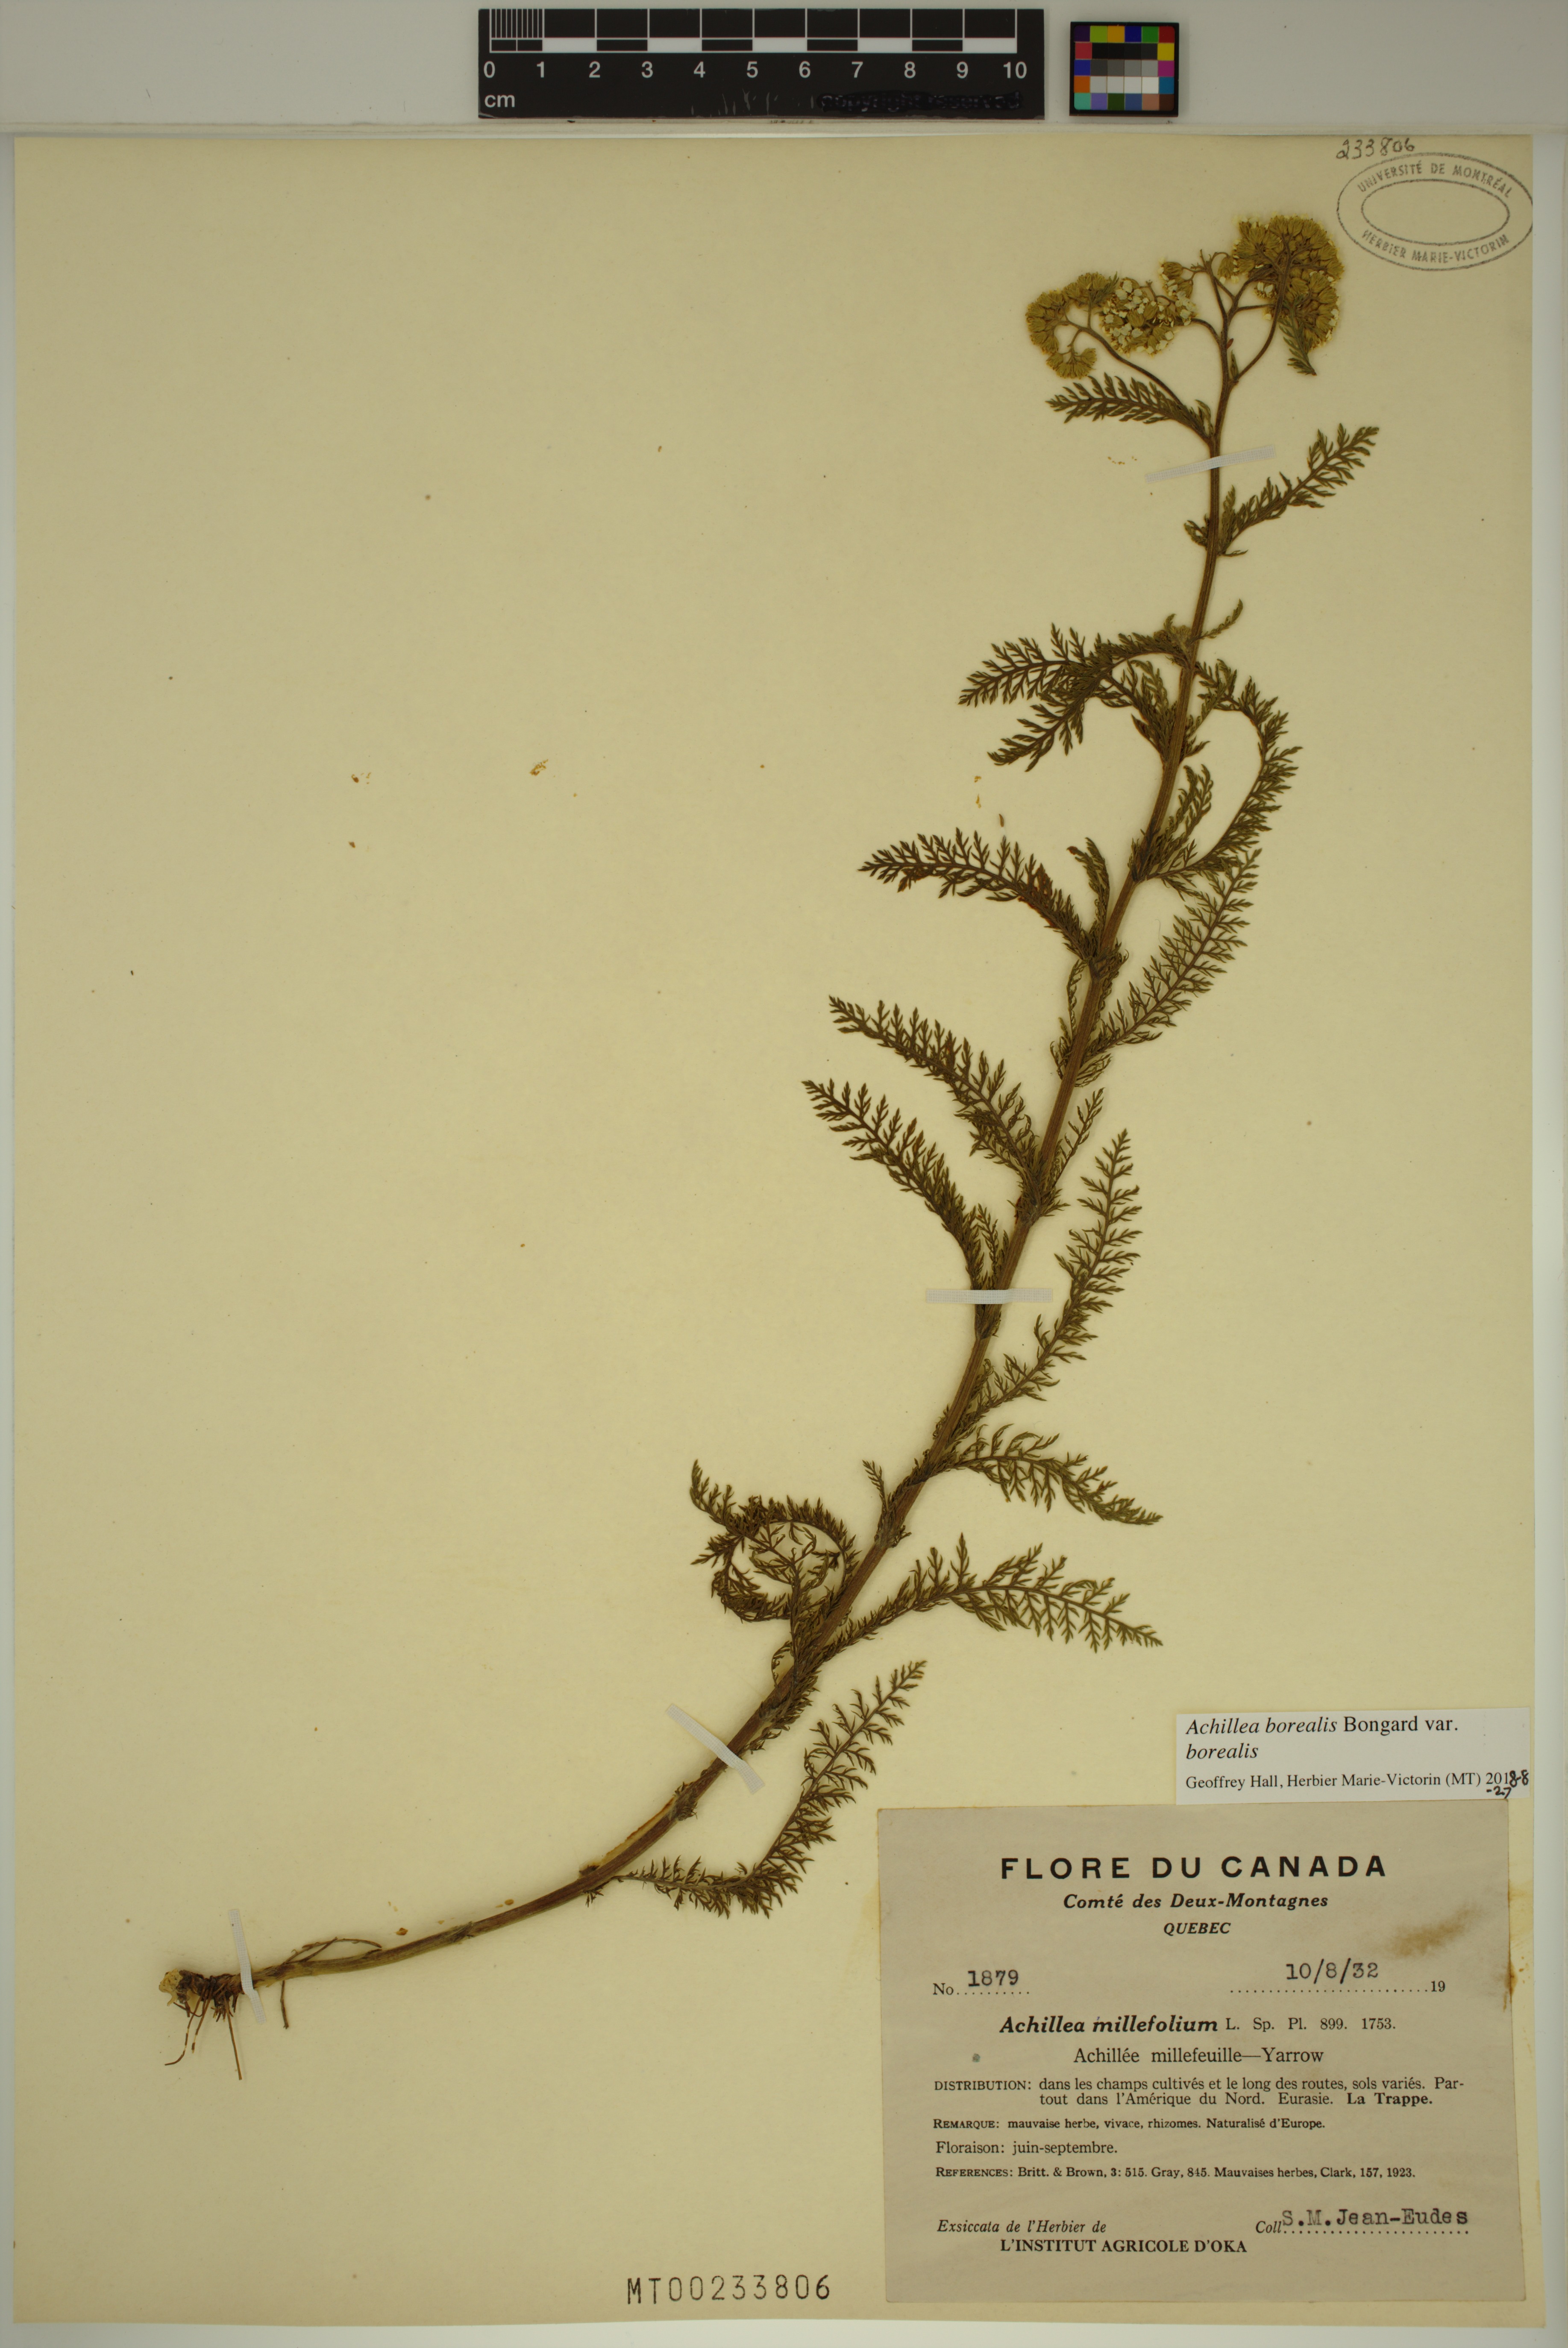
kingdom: Plantae
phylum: Tracheophyta
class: Magnoliopsida
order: Asterales
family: Asteraceae
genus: Achillea
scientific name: Achillea millefolium
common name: Yarrow
